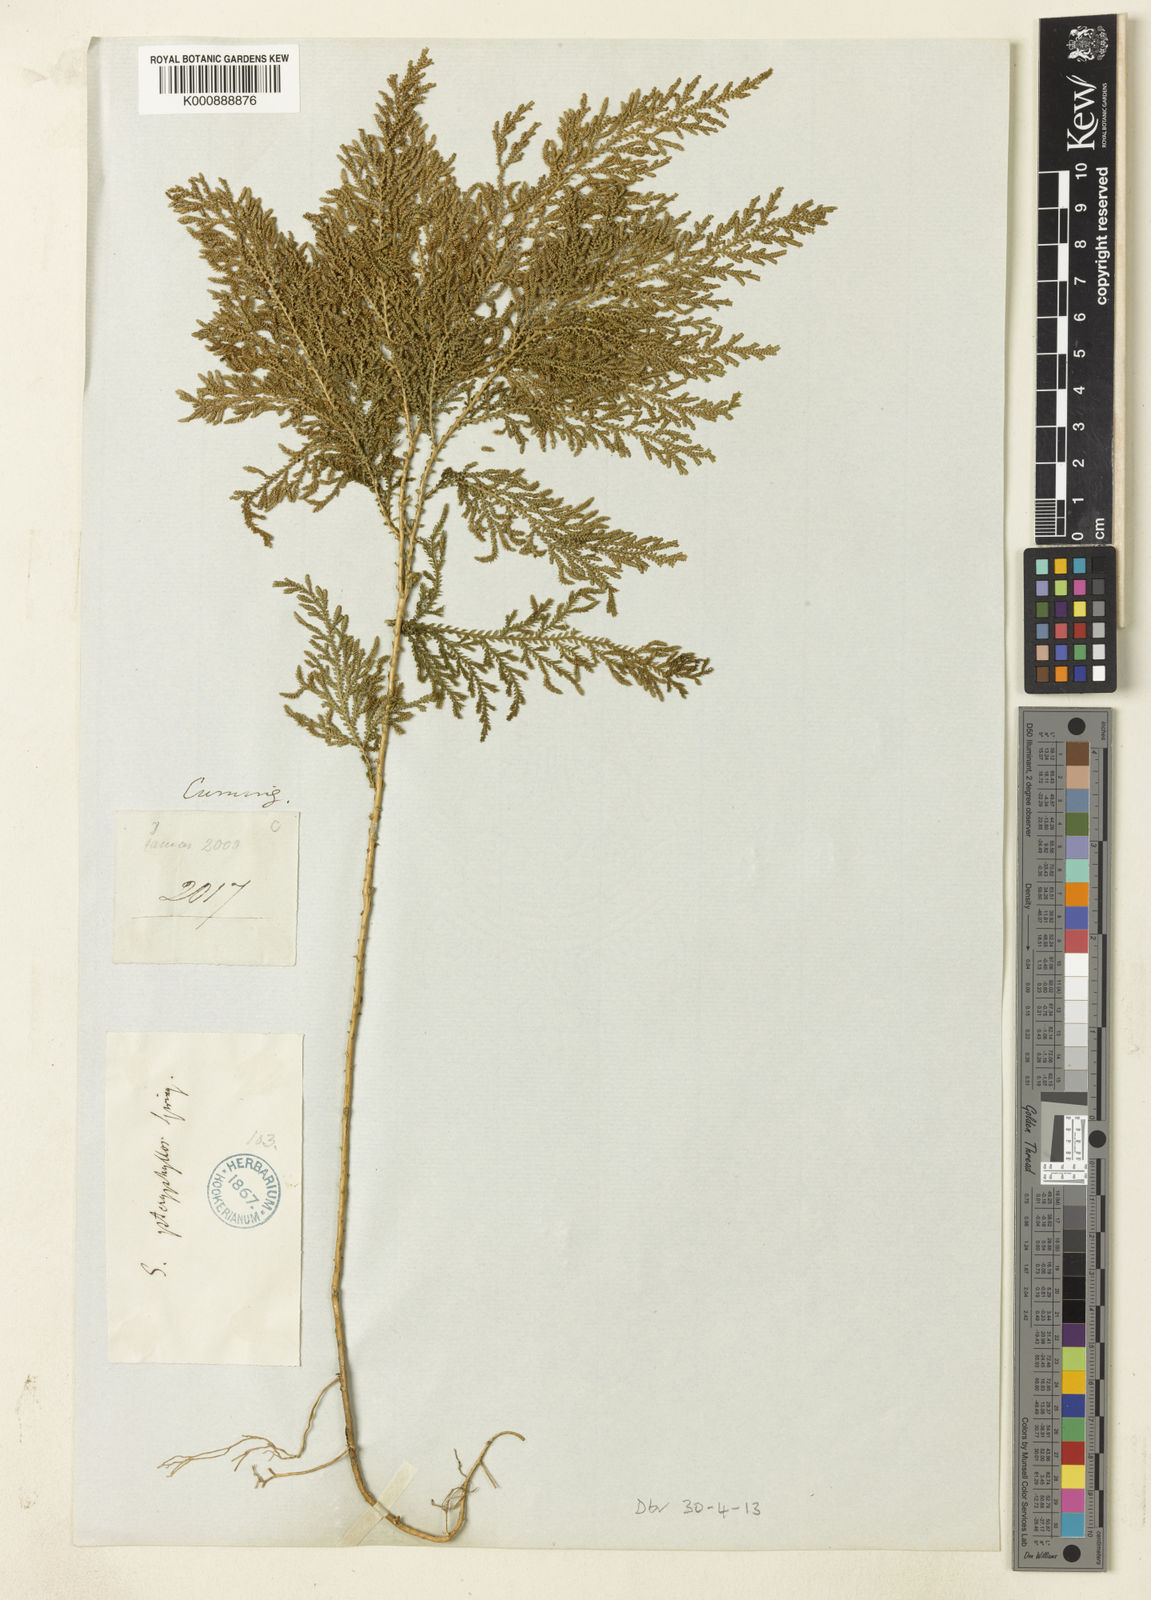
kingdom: Plantae
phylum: Tracheophyta
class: Lycopodiopsida
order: Selaginellales
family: Selaginellaceae
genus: Selaginella
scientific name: Selaginella
